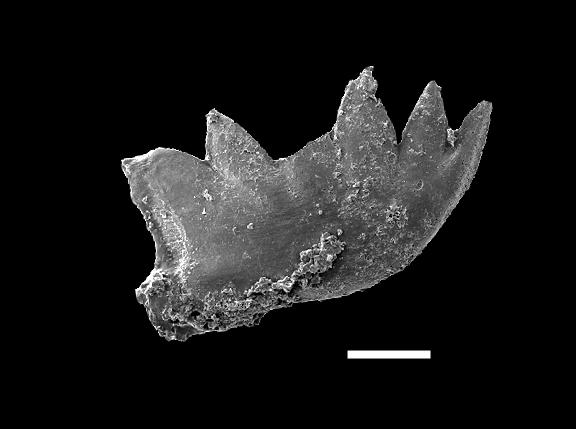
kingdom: Animalia
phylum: Chordata
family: Panderodontidae
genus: Pseudobelodina
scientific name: Pseudobelodina
